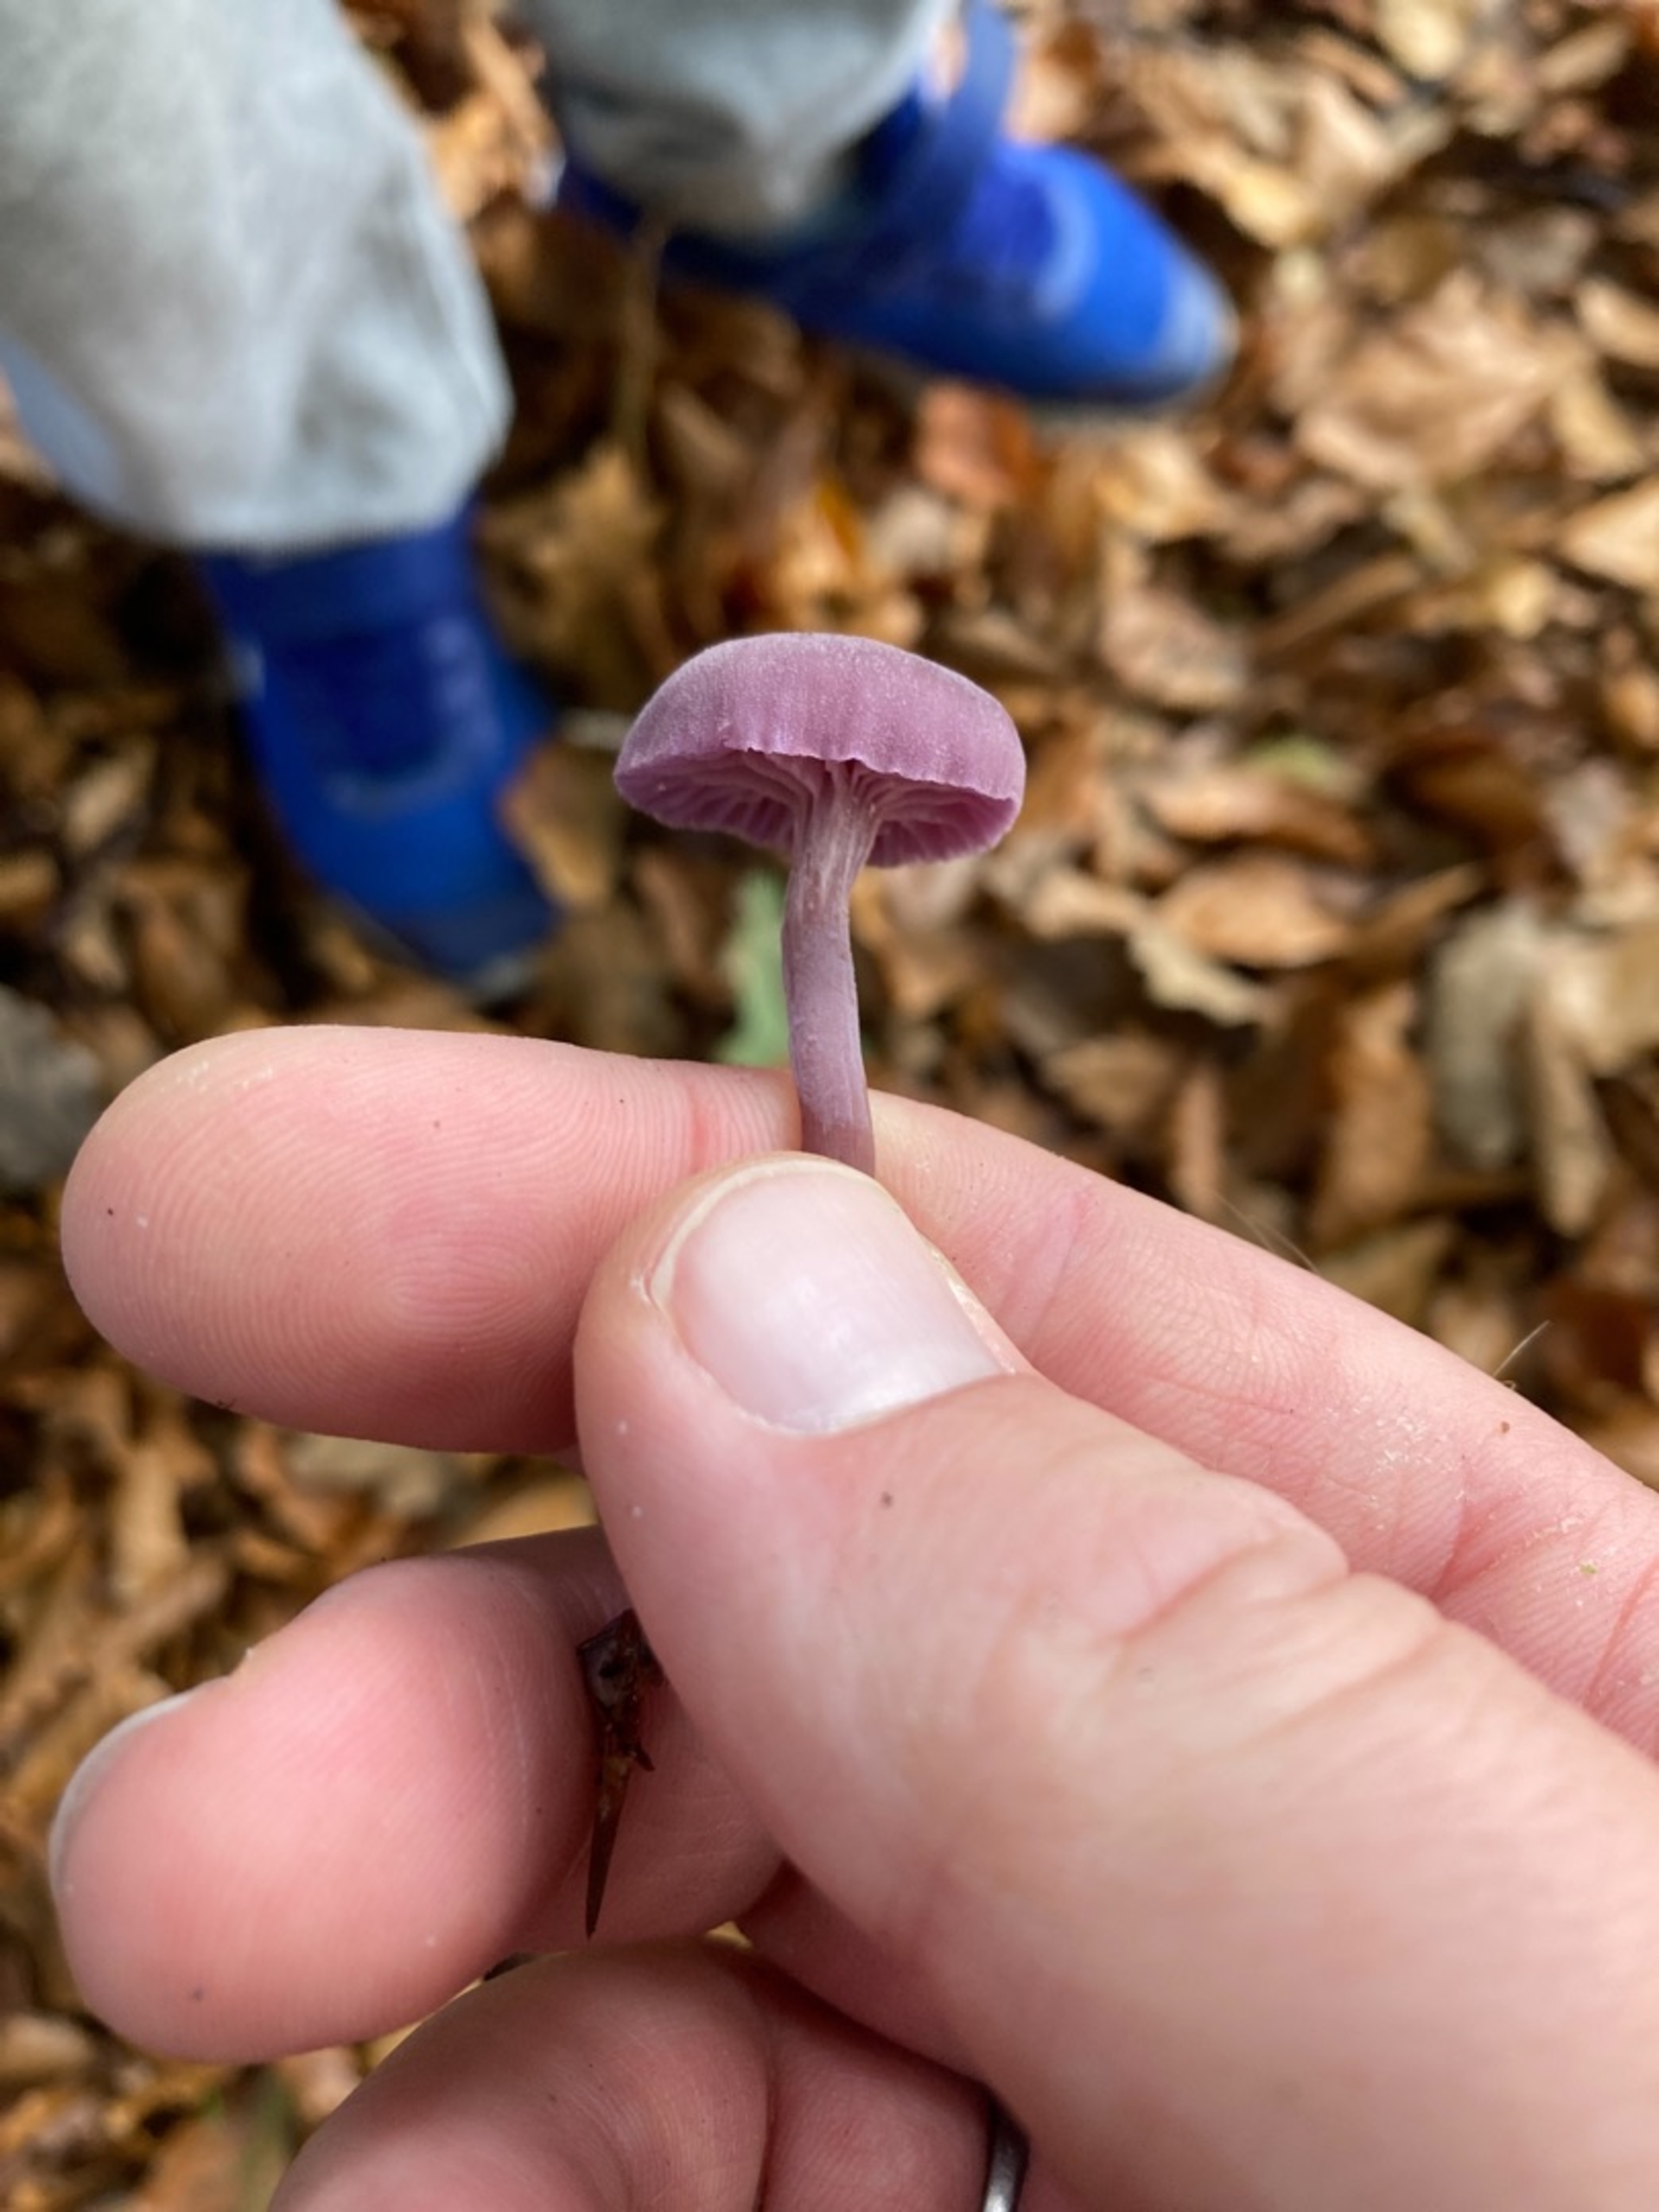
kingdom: Fungi
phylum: Basidiomycota
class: Agaricomycetes
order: Agaricales
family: Hydnangiaceae
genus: Laccaria
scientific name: Laccaria amethystina
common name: Violet ametysthat
